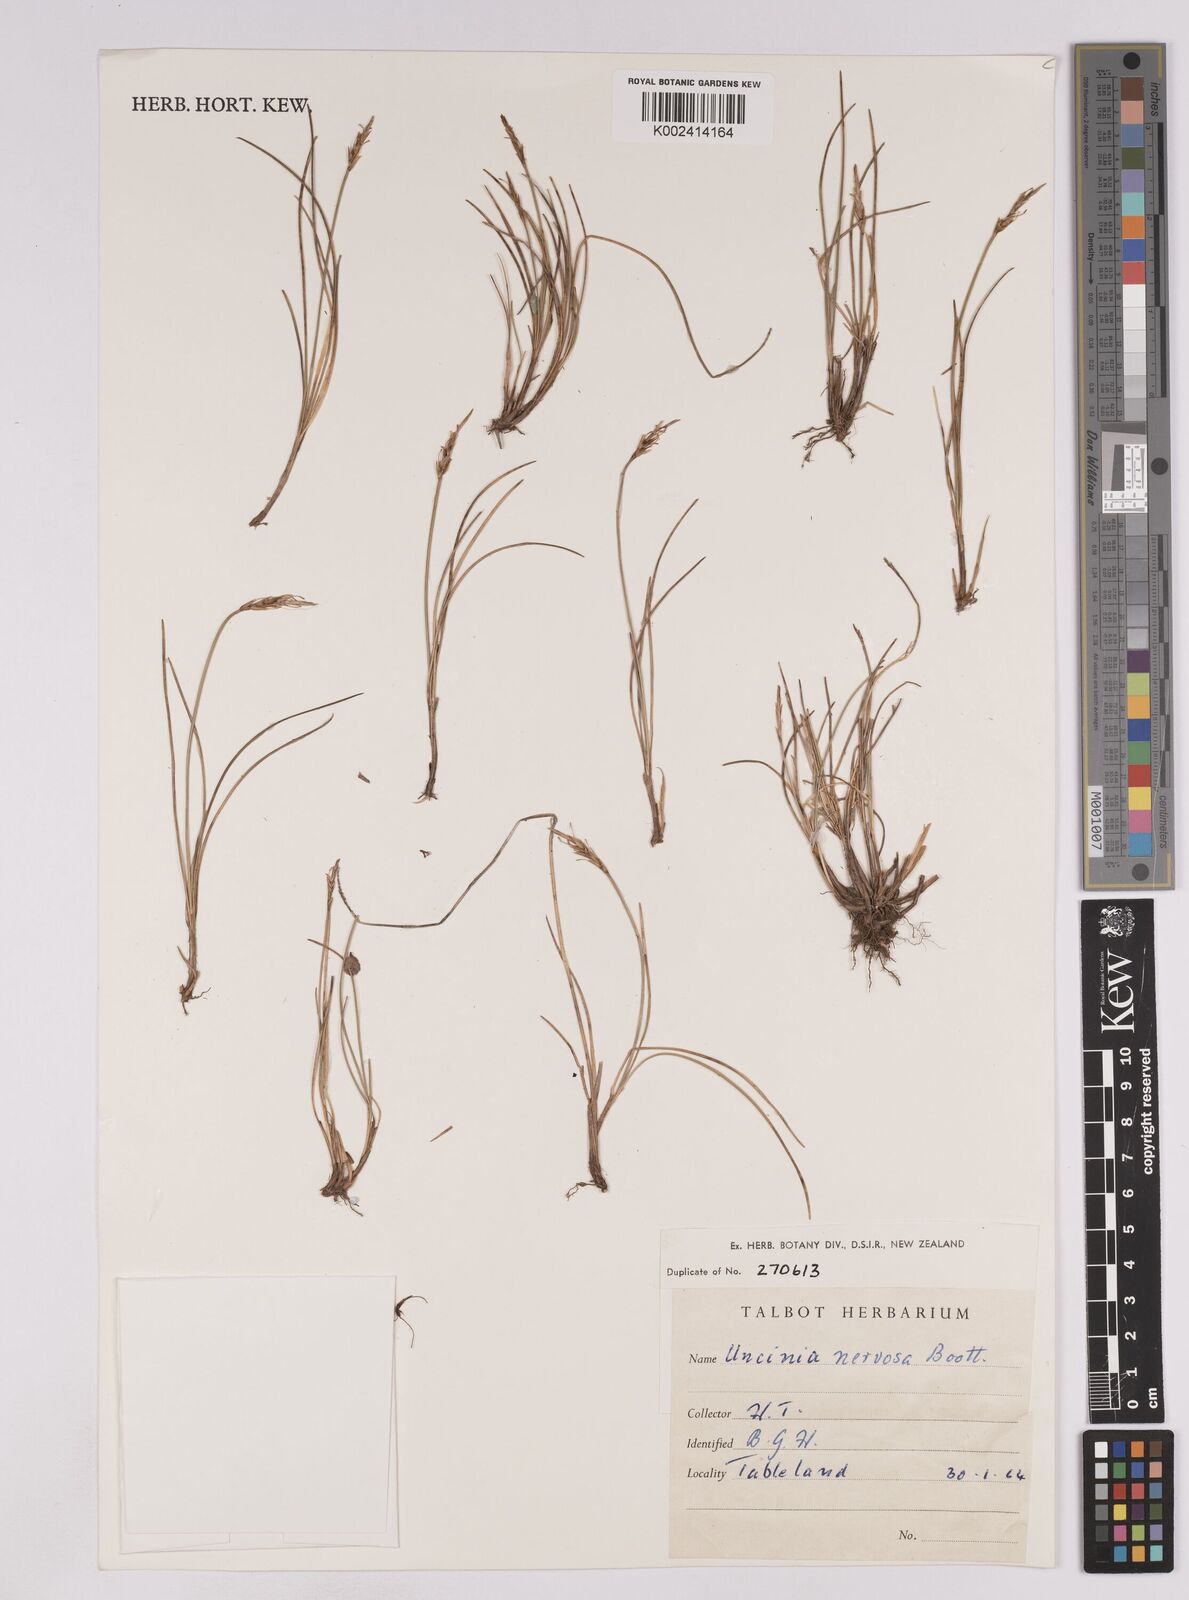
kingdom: Plantae
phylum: Tracheophyta
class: Liliopsida
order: Poales
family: Cyperaceae
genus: Carex
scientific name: Carex cheesemanniana
